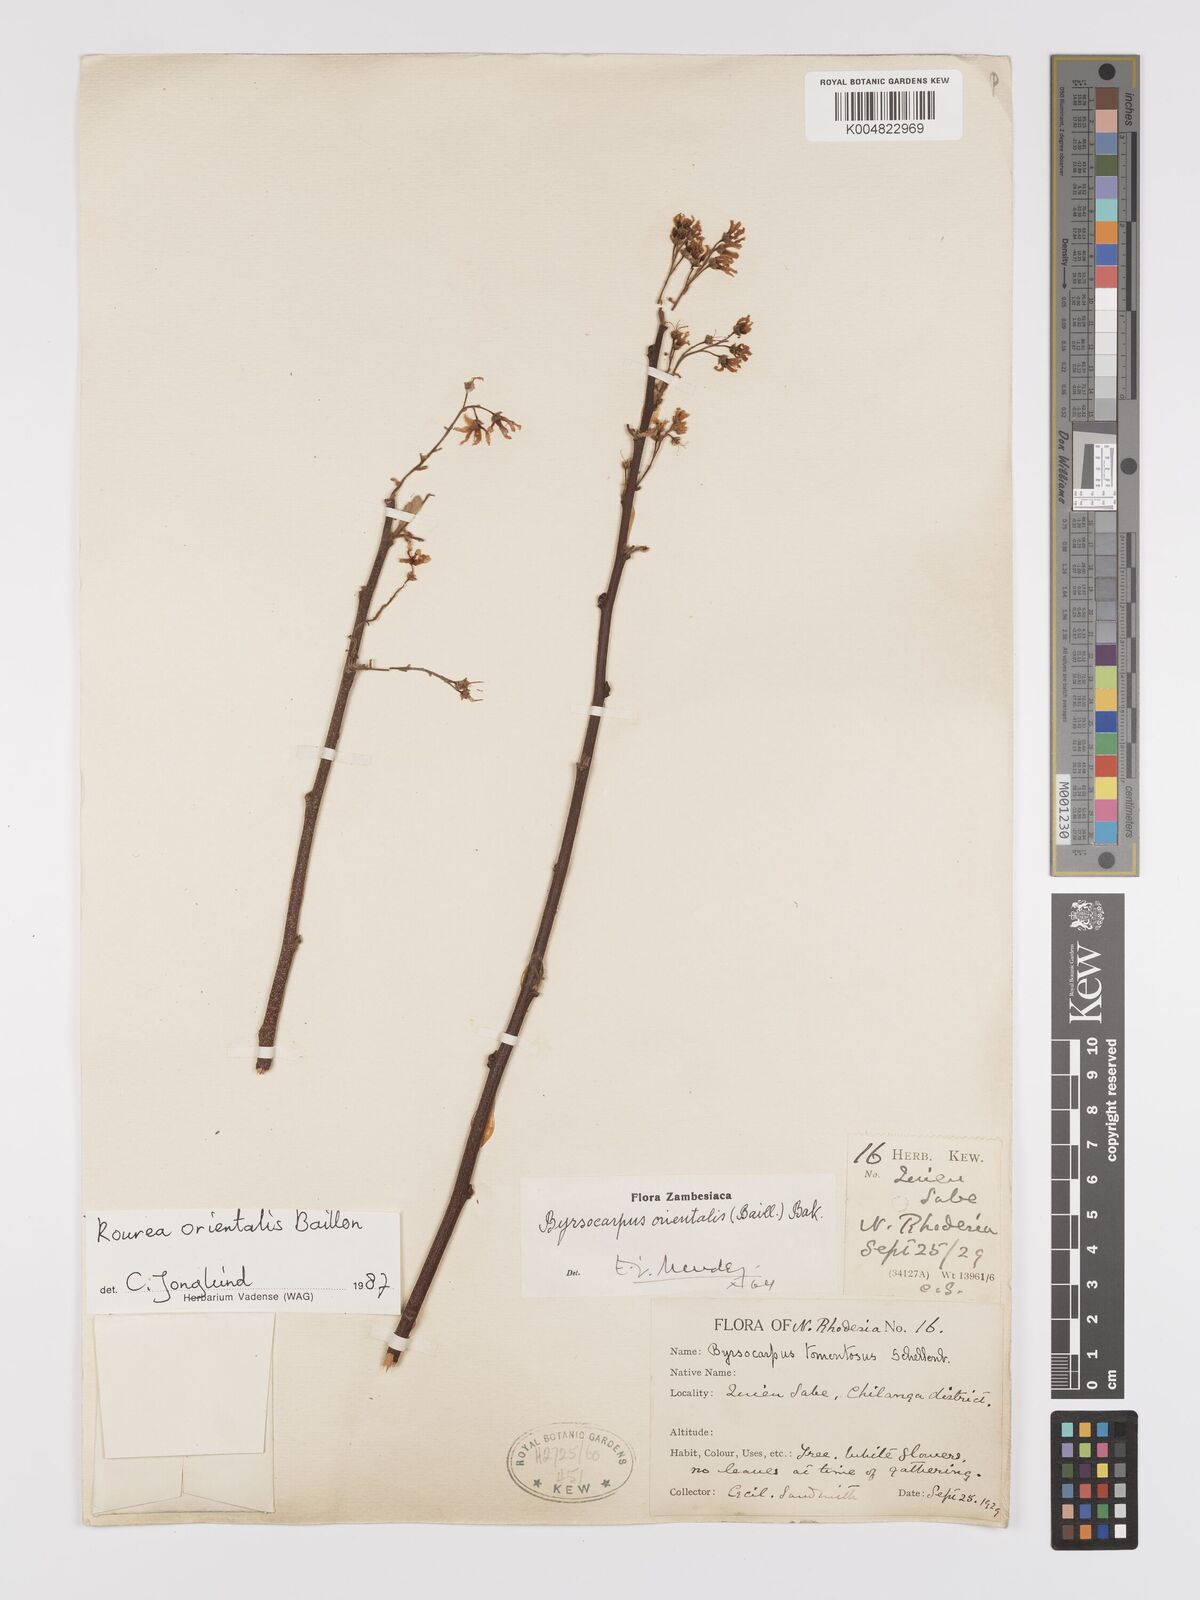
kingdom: Plantae
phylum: Tracheophyta
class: Magnoliopsida
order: Oxalidales
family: Connaraceae
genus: Rourea
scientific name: Rourea orientalis
